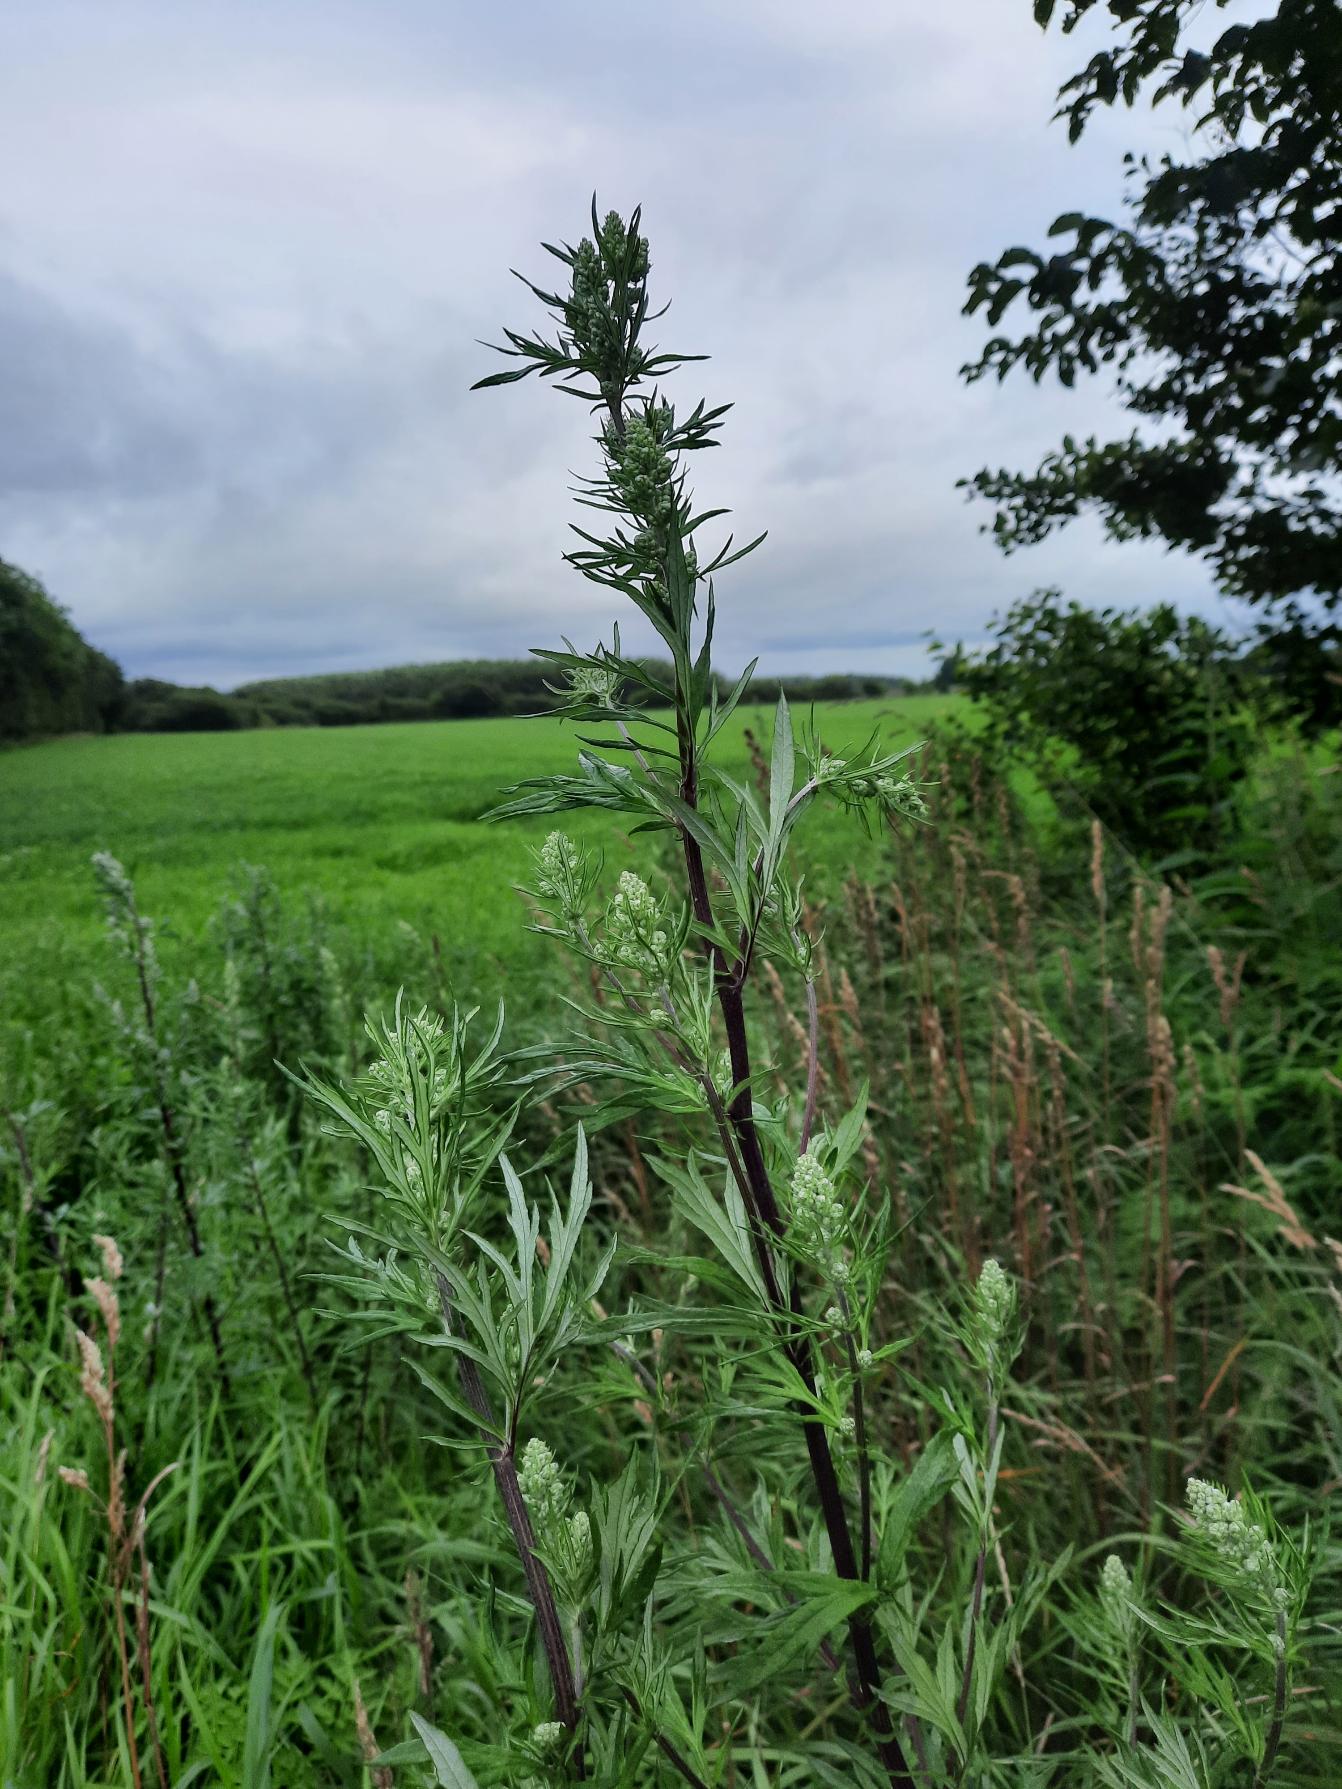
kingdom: Plantae
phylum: Tracheophyta
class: Magnoliopsida
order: Asterales
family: Asteraceae
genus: Artemisia
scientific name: Artemisia vulgaris
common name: Grå-bynke
